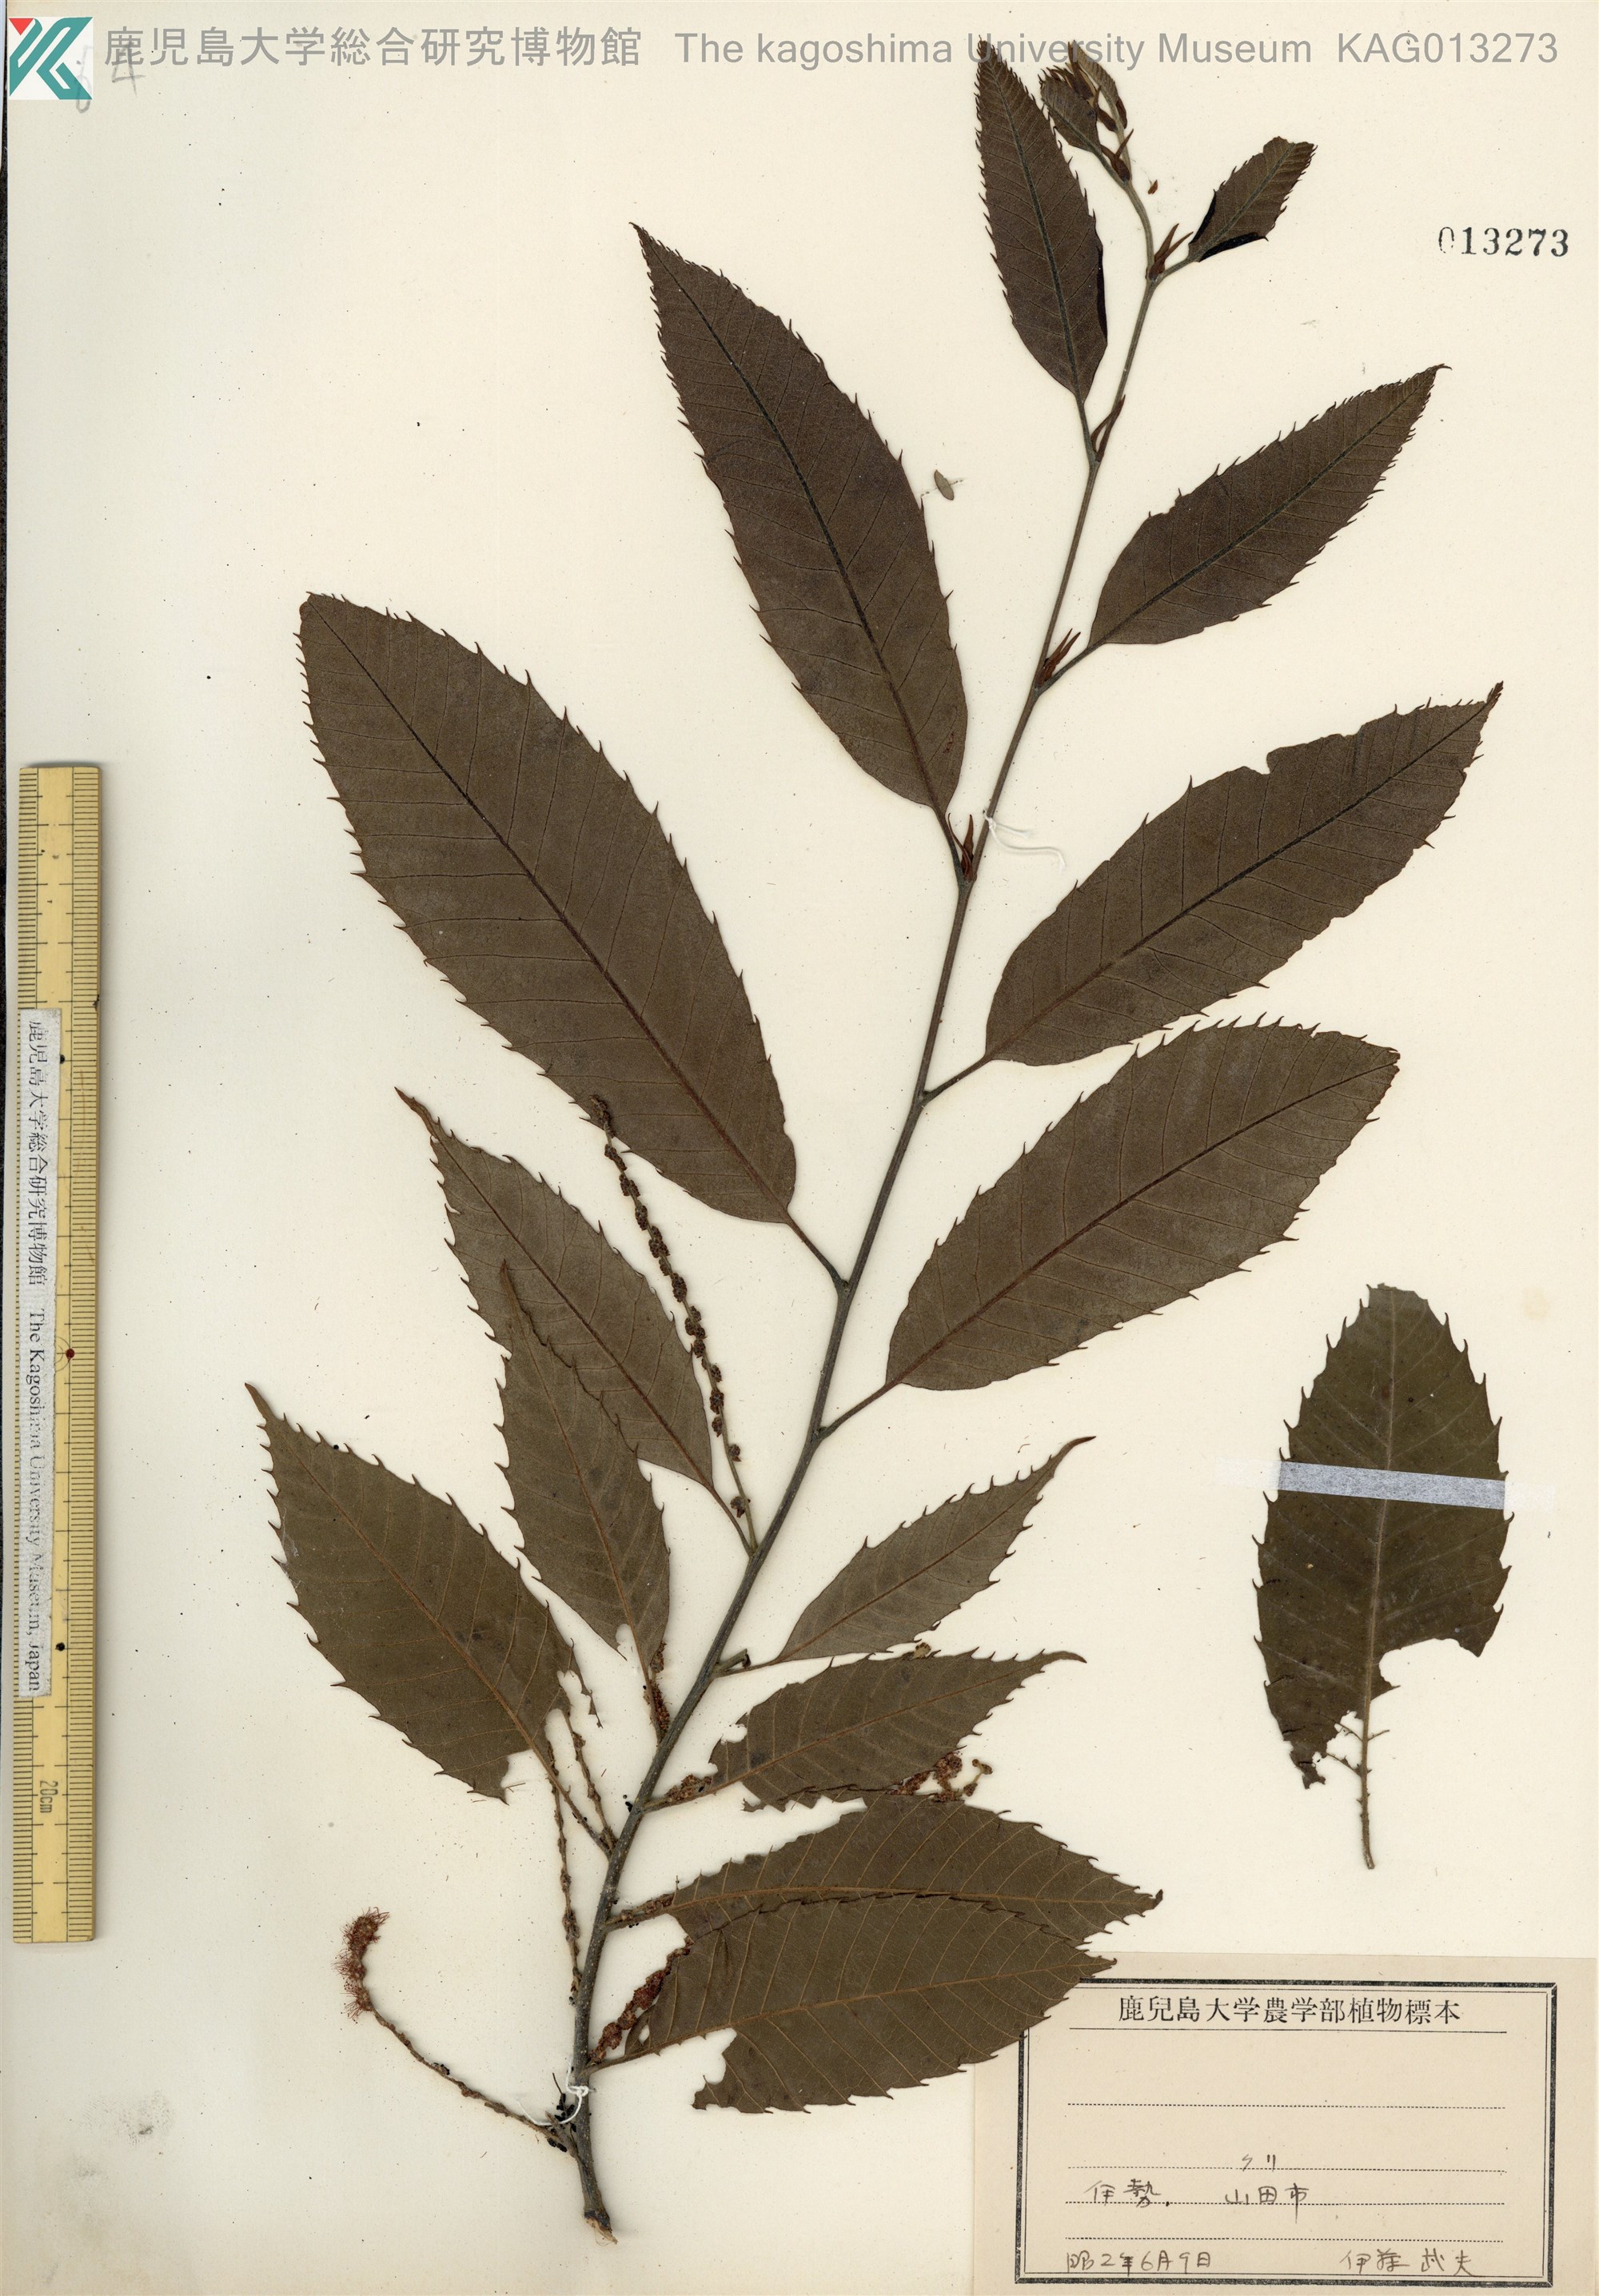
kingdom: Plantae
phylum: Tracheophyta
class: Magnoliopsida
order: Fagales
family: Fagaceae
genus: Castanea
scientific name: Castanea crenata
